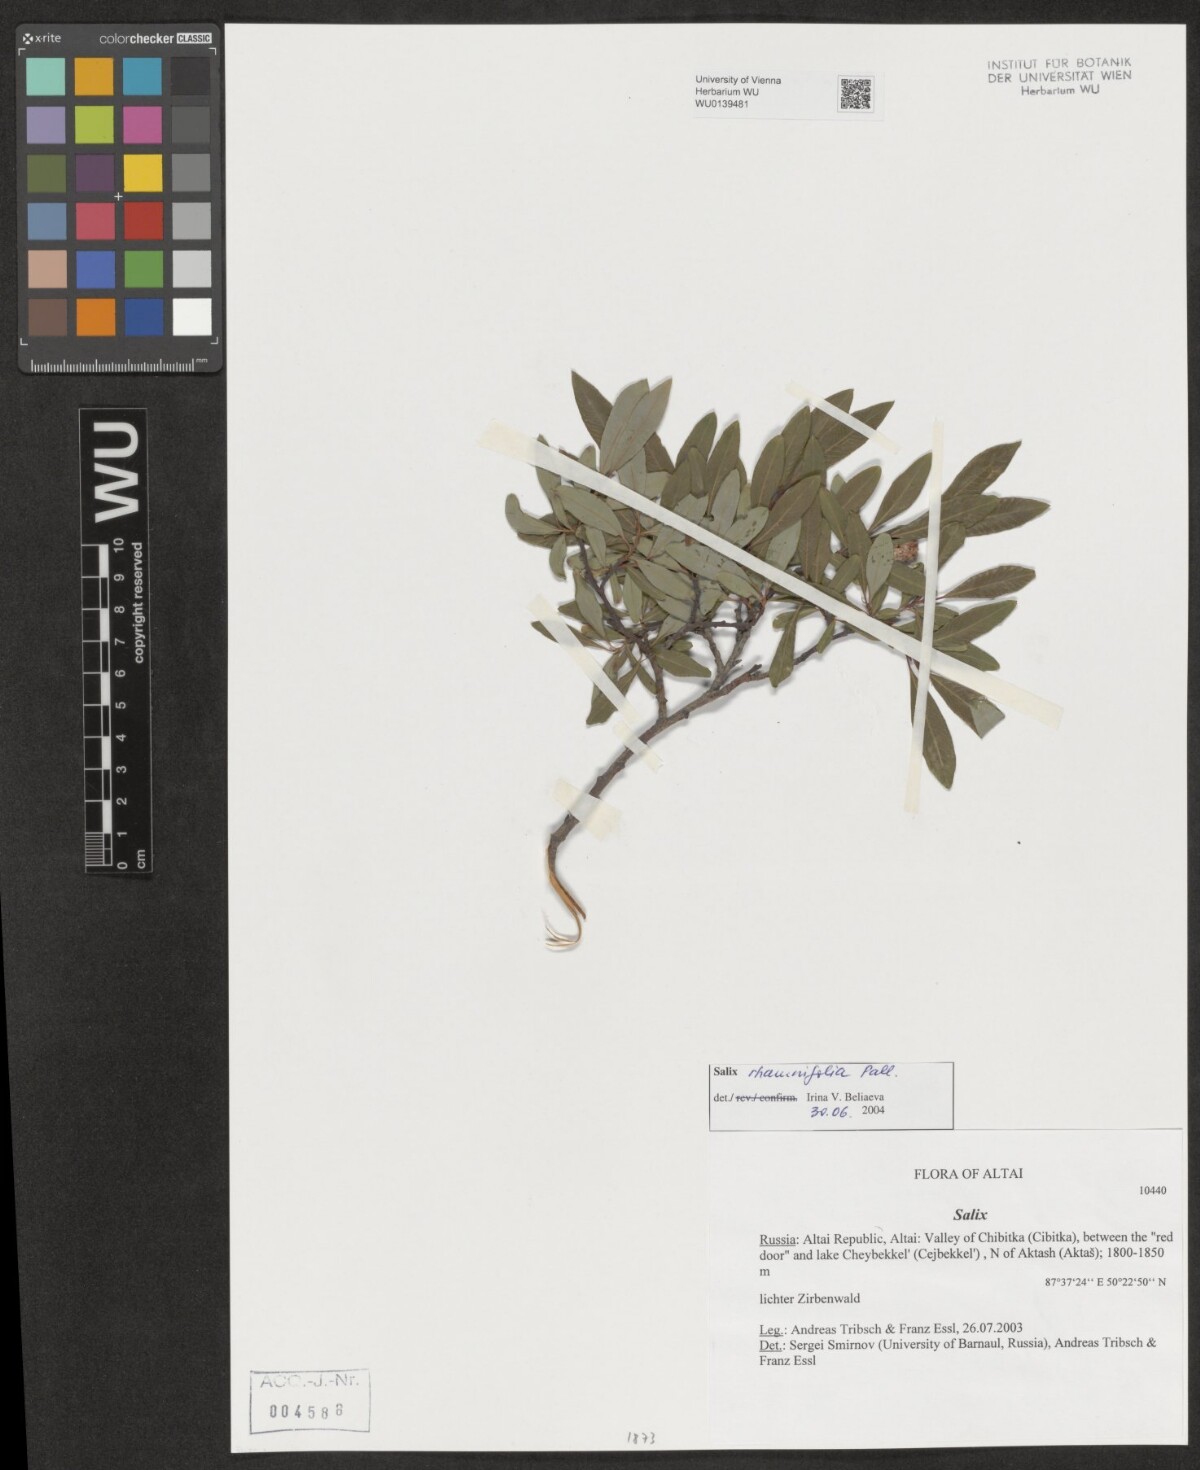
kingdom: Plantae
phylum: Tracheophyta
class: Magnoliopsida
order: Malpighiales
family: Salicaceae
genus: Salix
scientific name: Salix rhamnifolia
